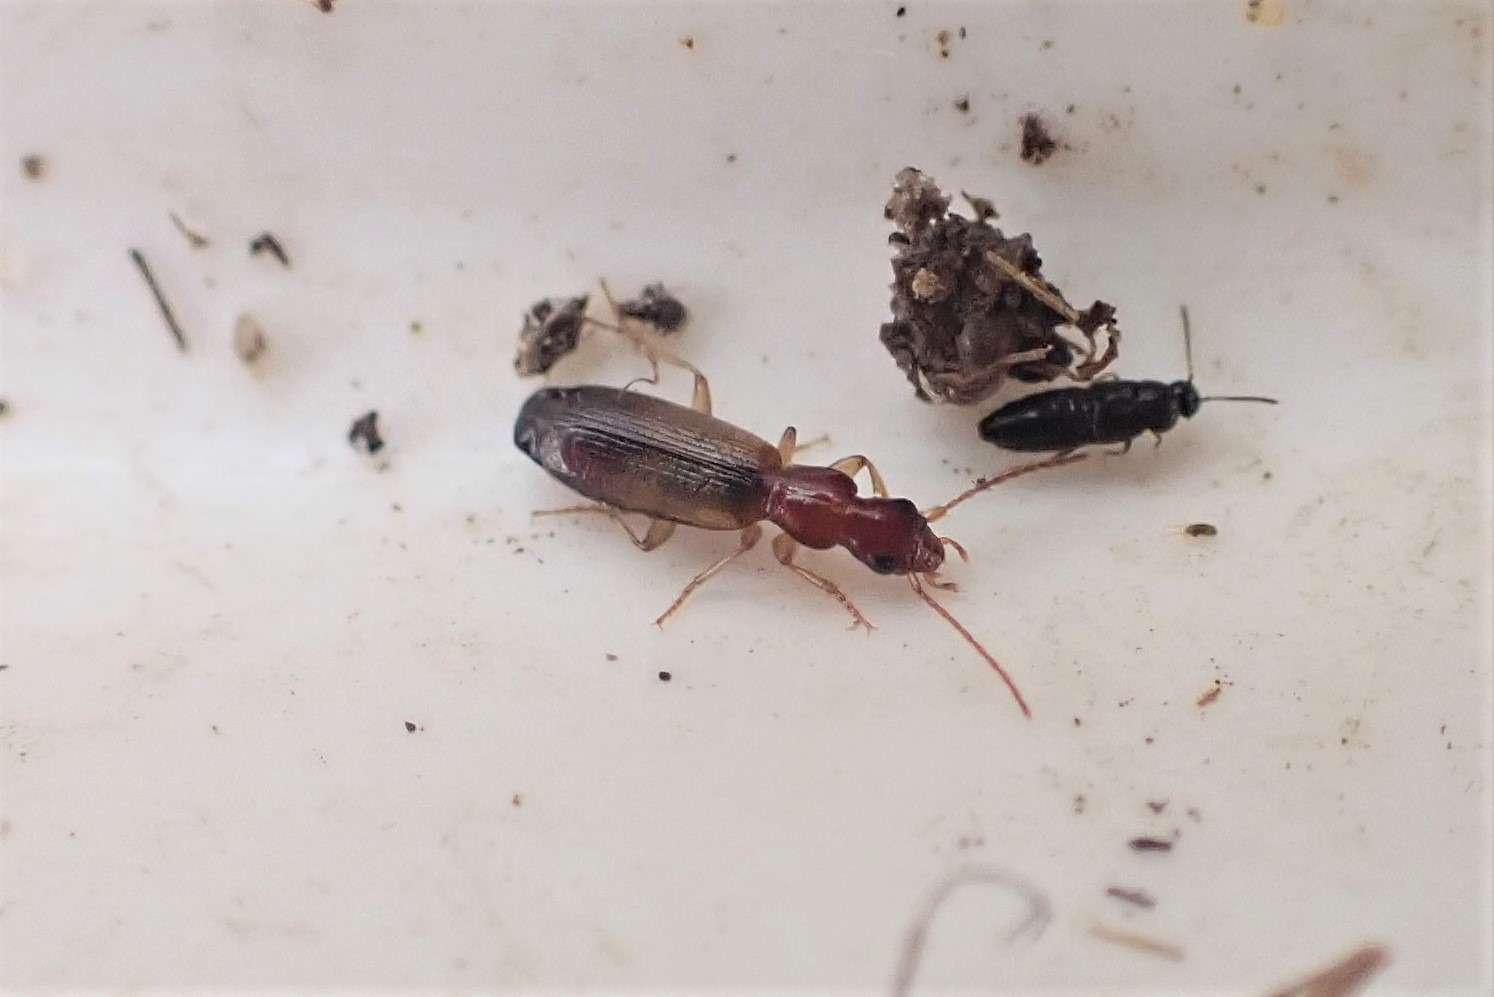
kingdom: Animalia
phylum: Arthropoda
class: Insecta
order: Coleoptera
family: Carabidae
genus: Paradromius
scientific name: Paradromius linearis
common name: Smal sivløber
